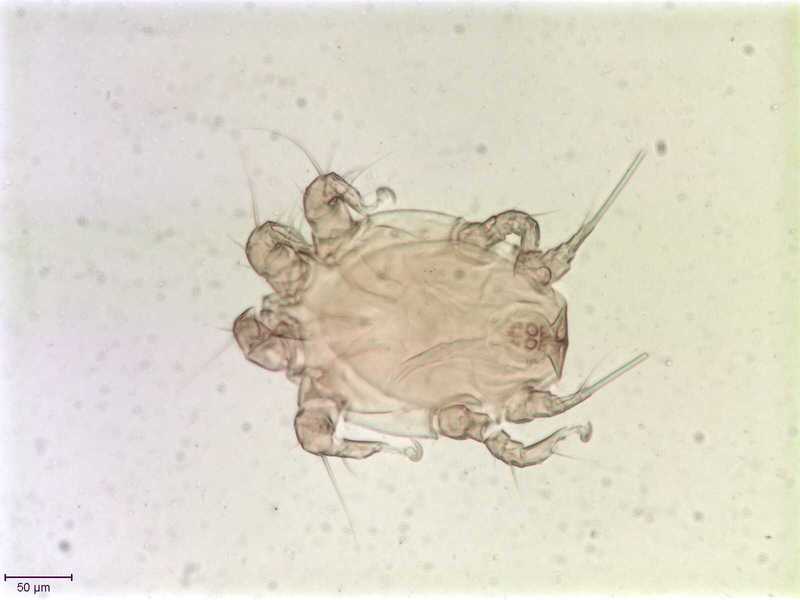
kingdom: Animalia
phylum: Arthropoda
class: Arachnida
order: Sarcoptiformes
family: Chaetodactylidae
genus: Sennertia
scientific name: Sennertia morstatti
